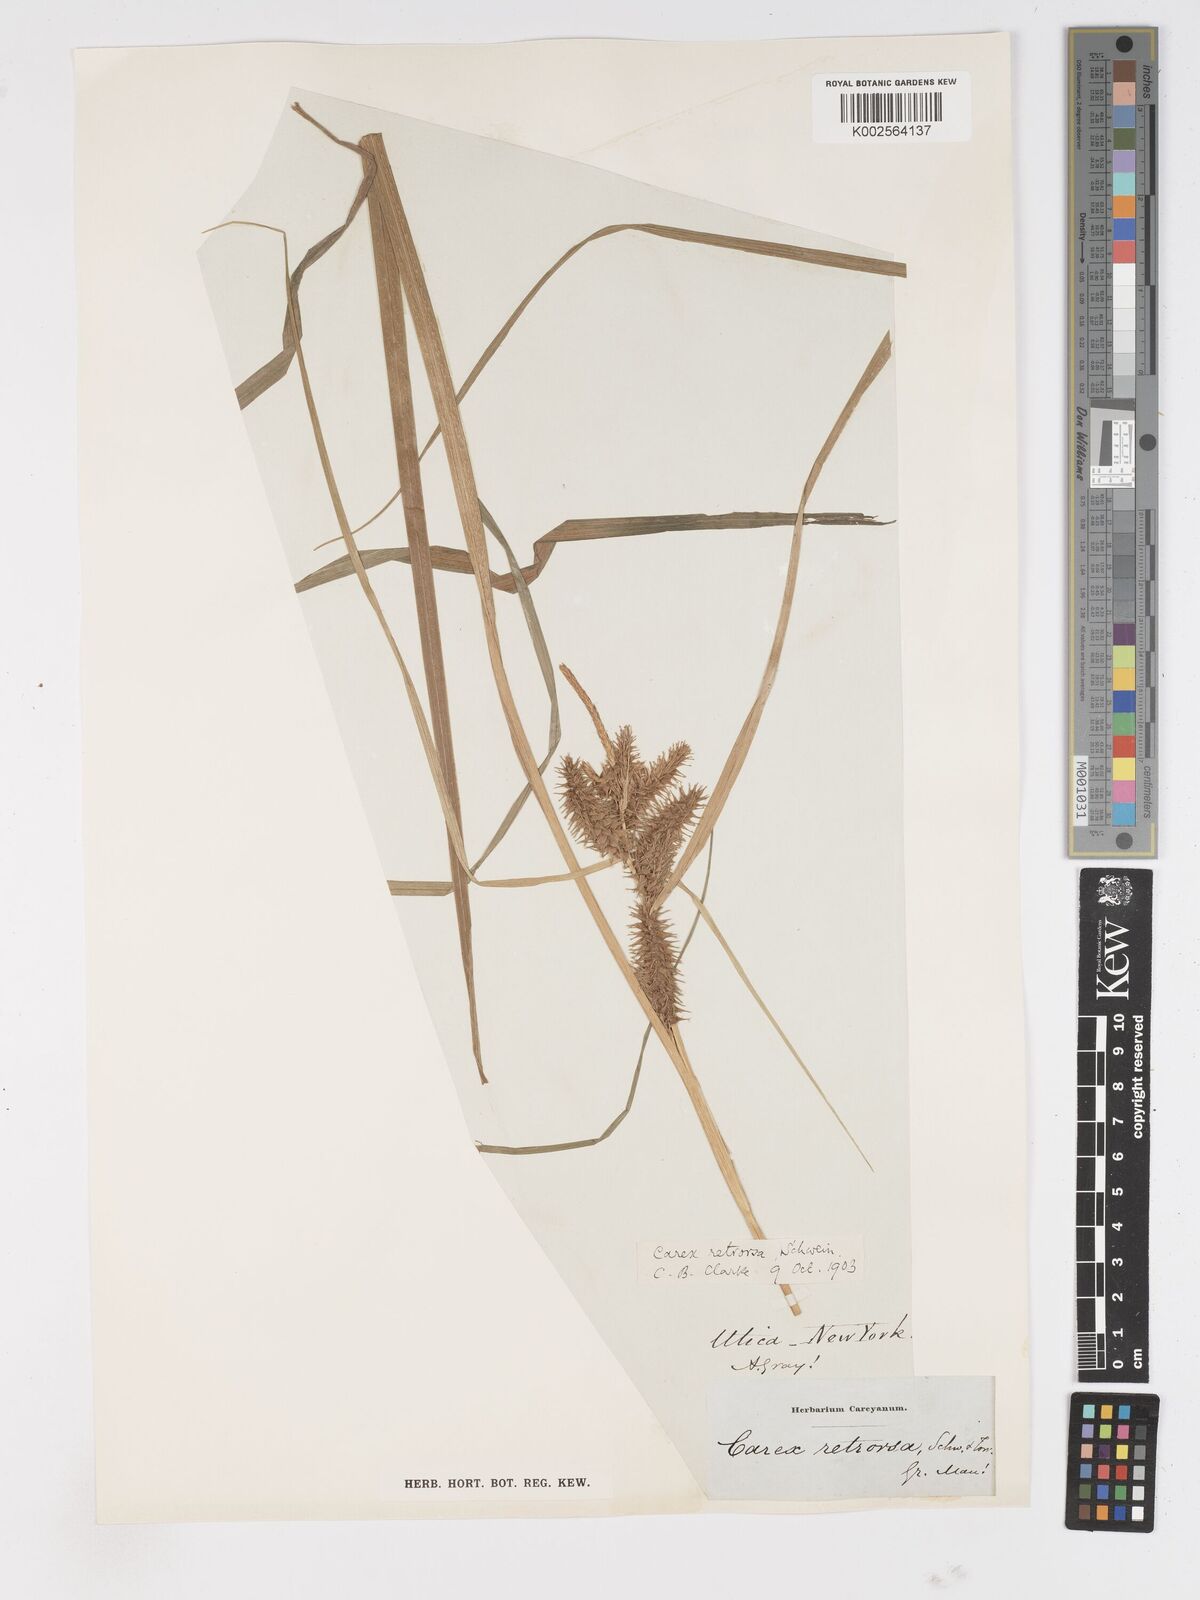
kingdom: Plantae
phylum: Tracheophyta
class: Liliopsida
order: Poales
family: Cyperaceae
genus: Carex
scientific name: Carex retrorsa
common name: Knot-sheath sedge
